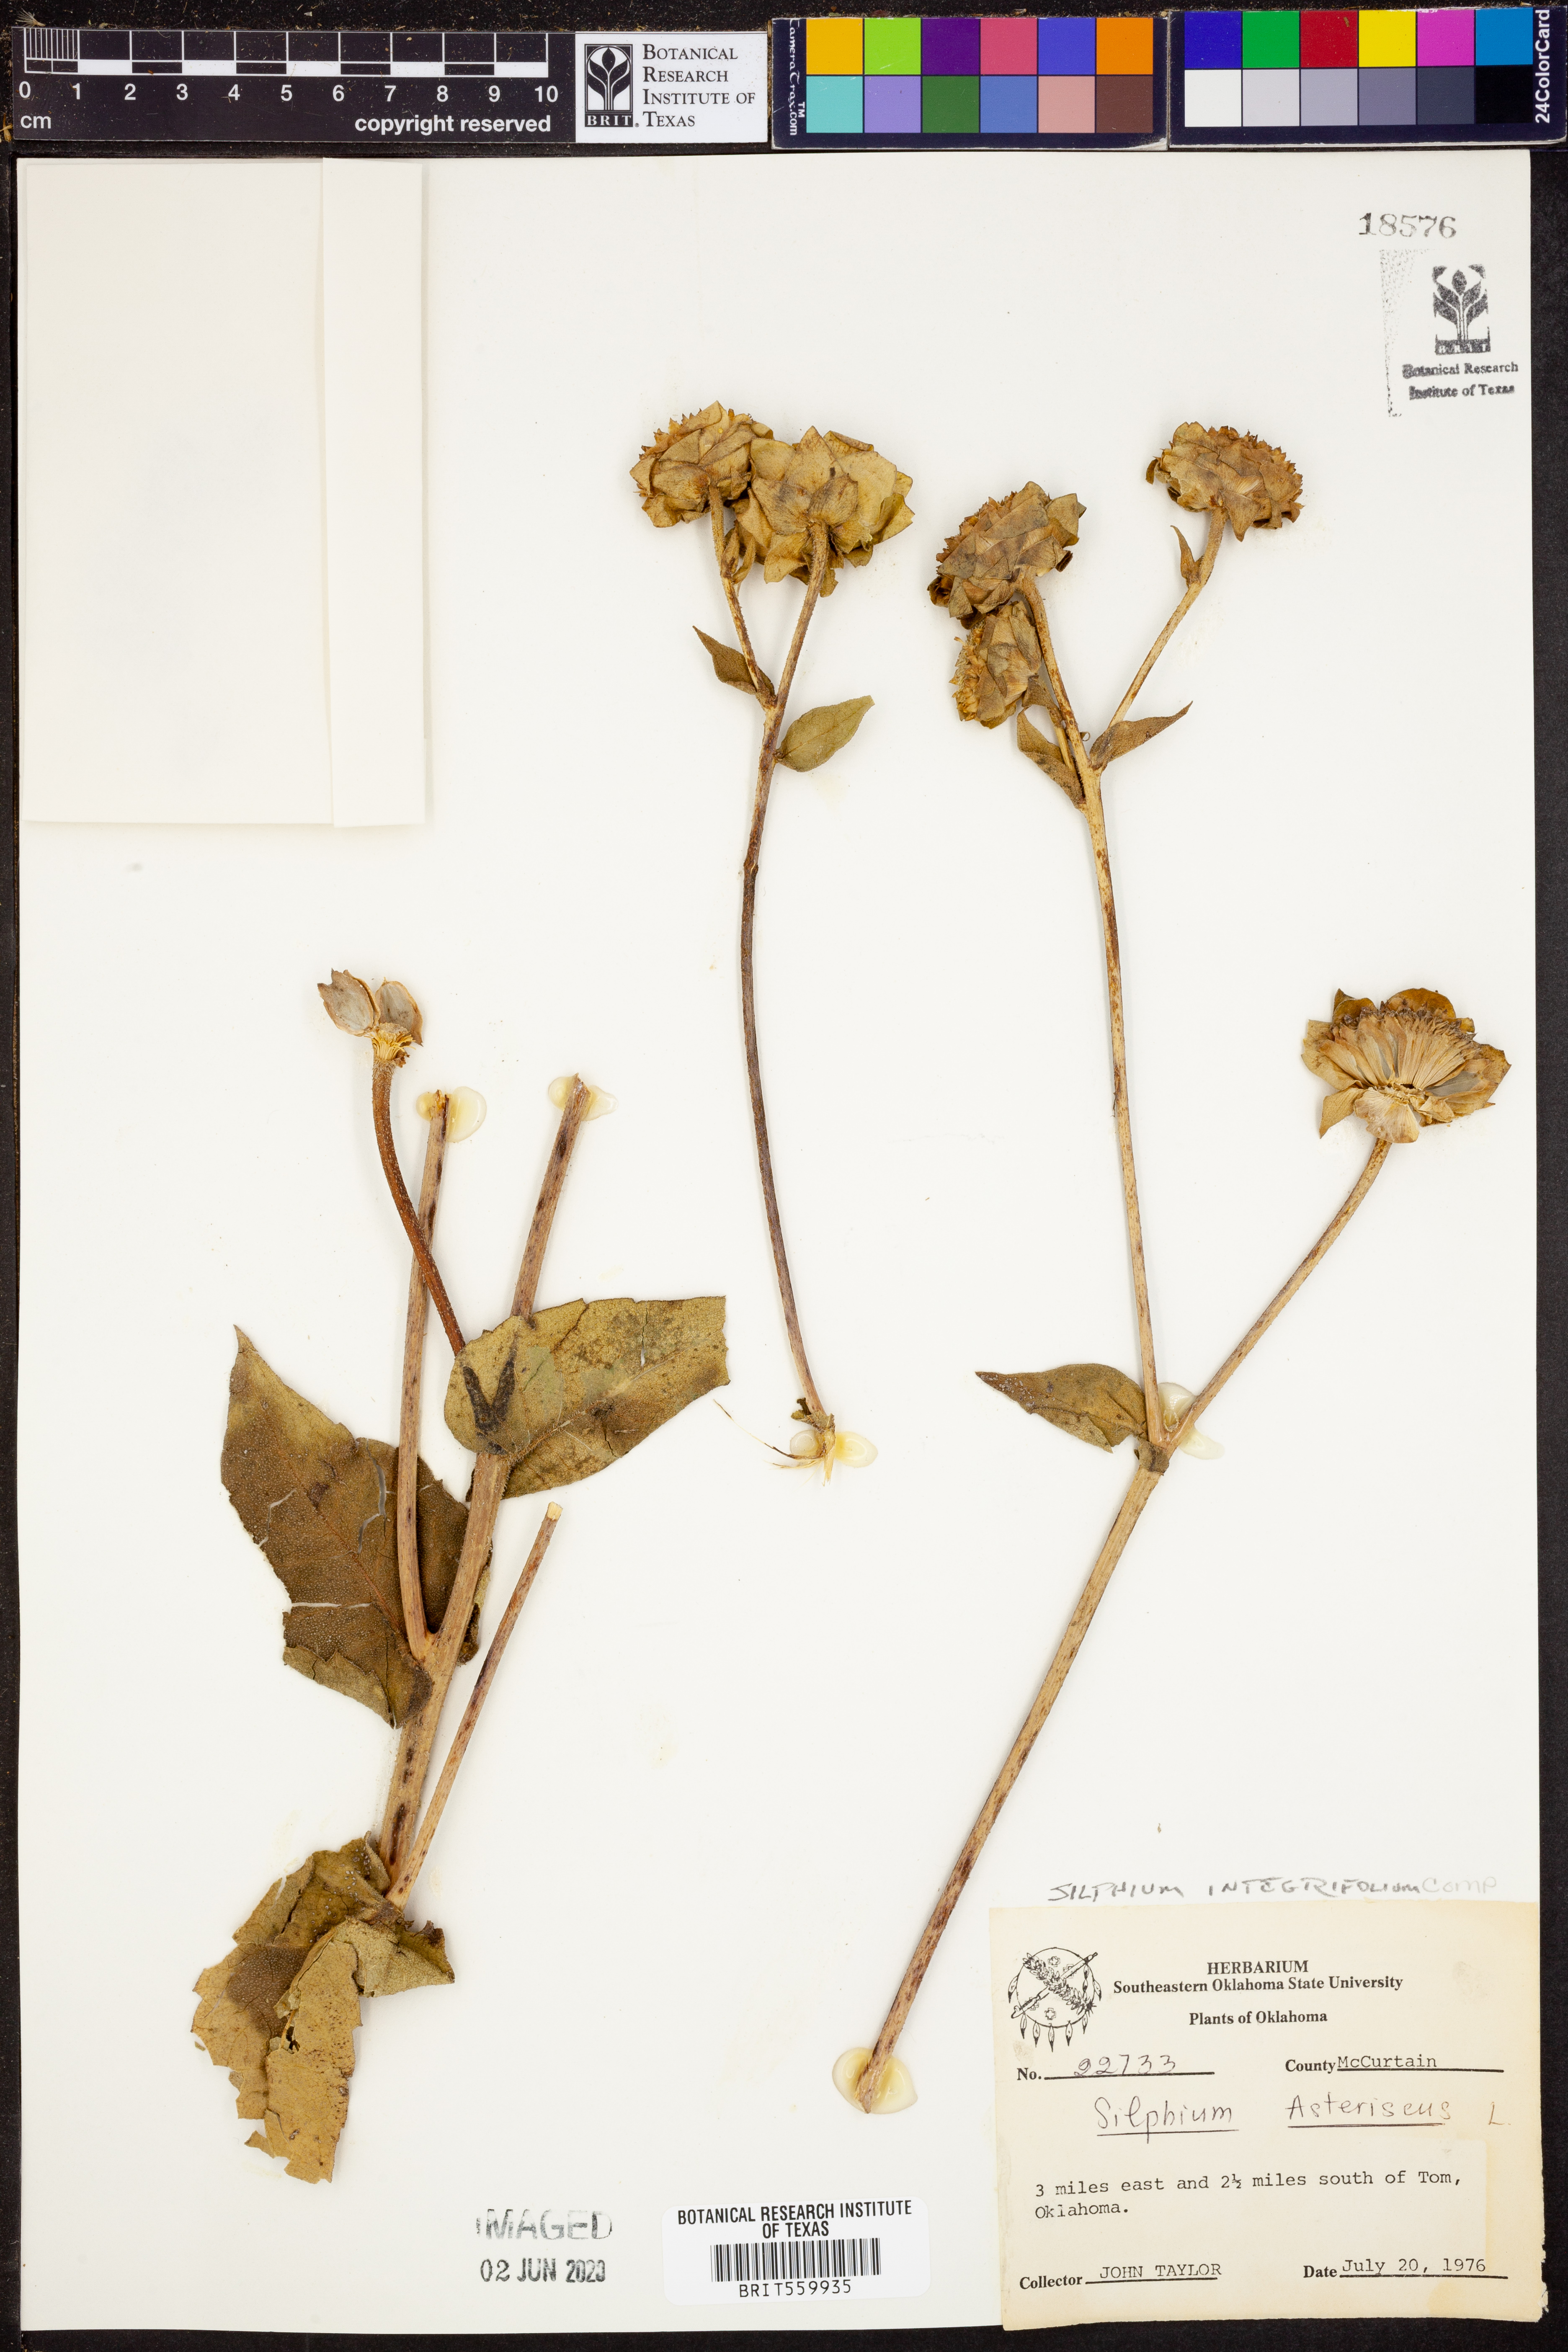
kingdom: Plantae
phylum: Tracheophyta
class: Magnoliopsida
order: Asterales
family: Asteraceae
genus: Silphium
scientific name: Silphium integrifolium
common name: Whole-leaf rosinweed
